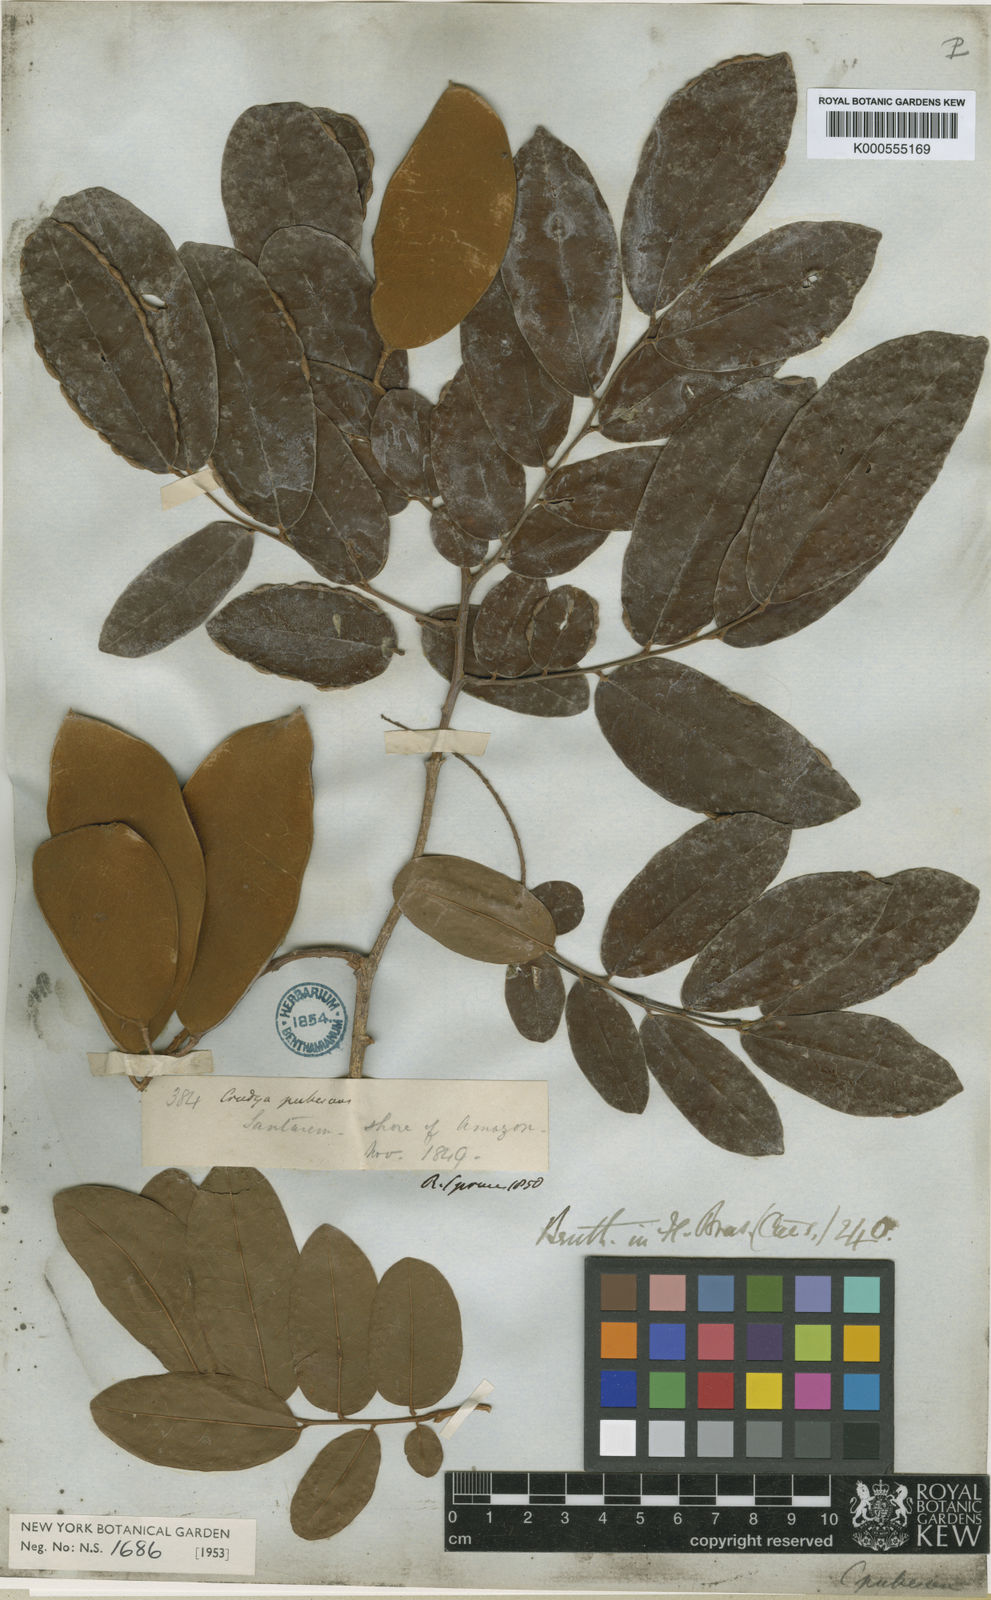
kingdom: Plantae
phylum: Tracheophyta
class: Magnoliopsida
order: Fabales
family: Fabaceae
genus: Crudia
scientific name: Crudia oblonga
